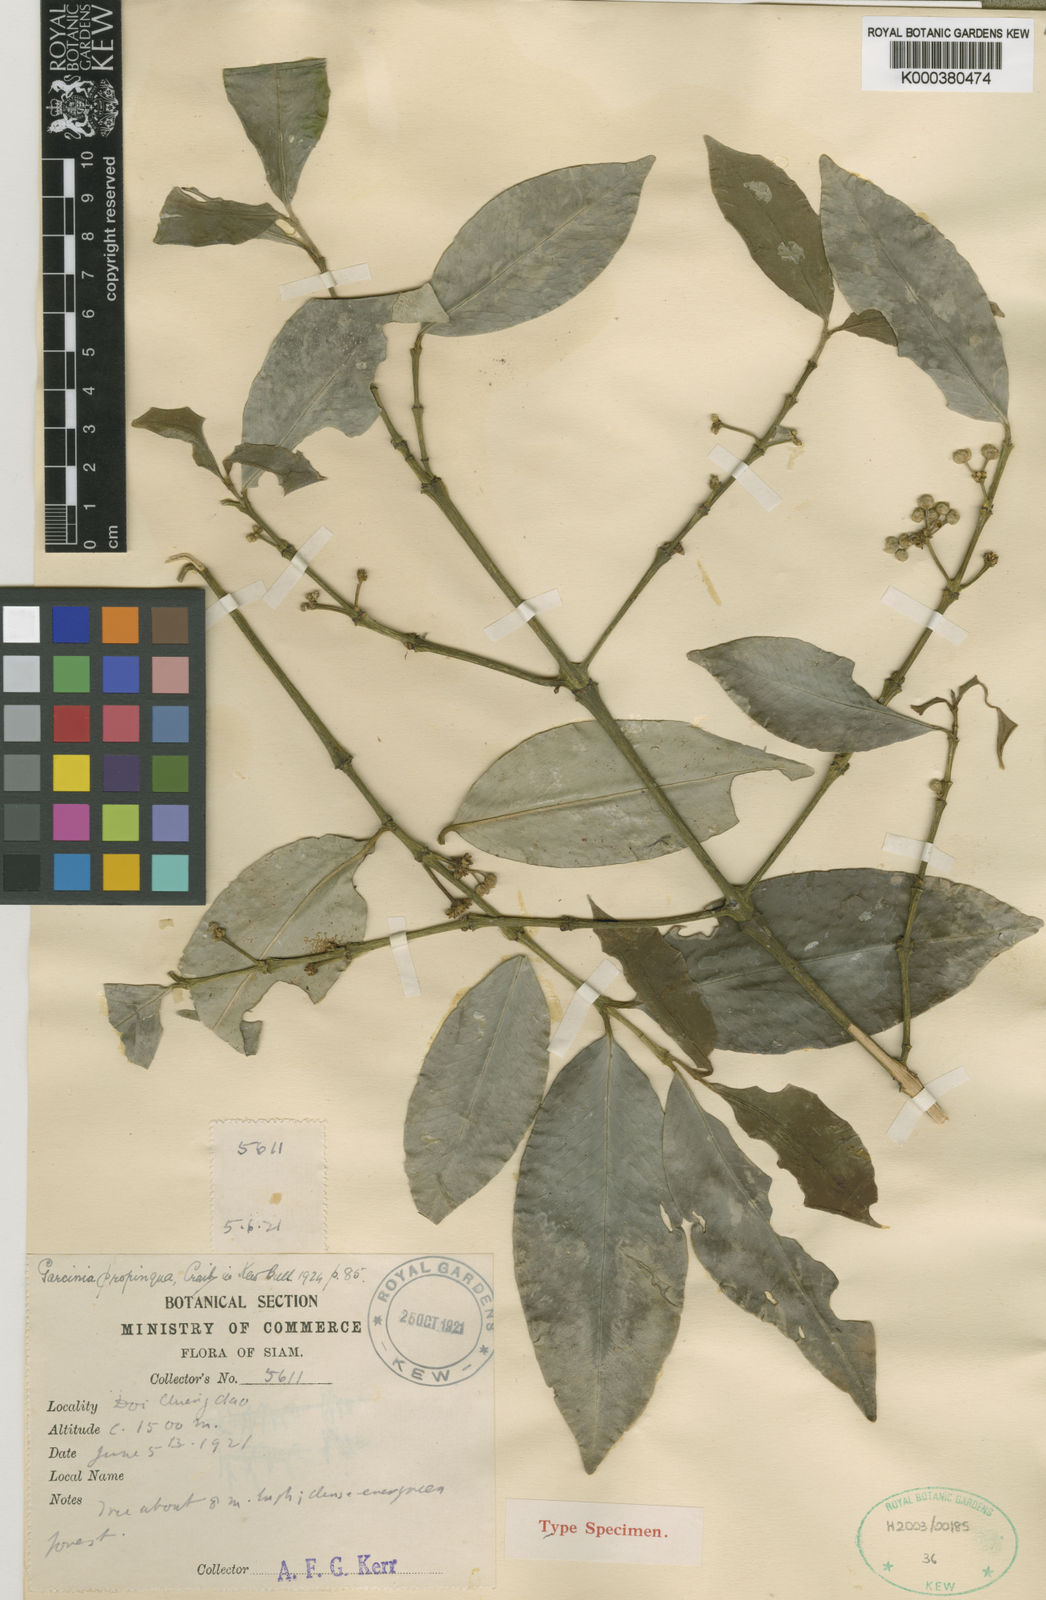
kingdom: Plantae
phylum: Tracheophyta
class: Magnoliopsida
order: Malpighiales
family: Clusiaceae
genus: Garcinia
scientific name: Garcinia anomala
